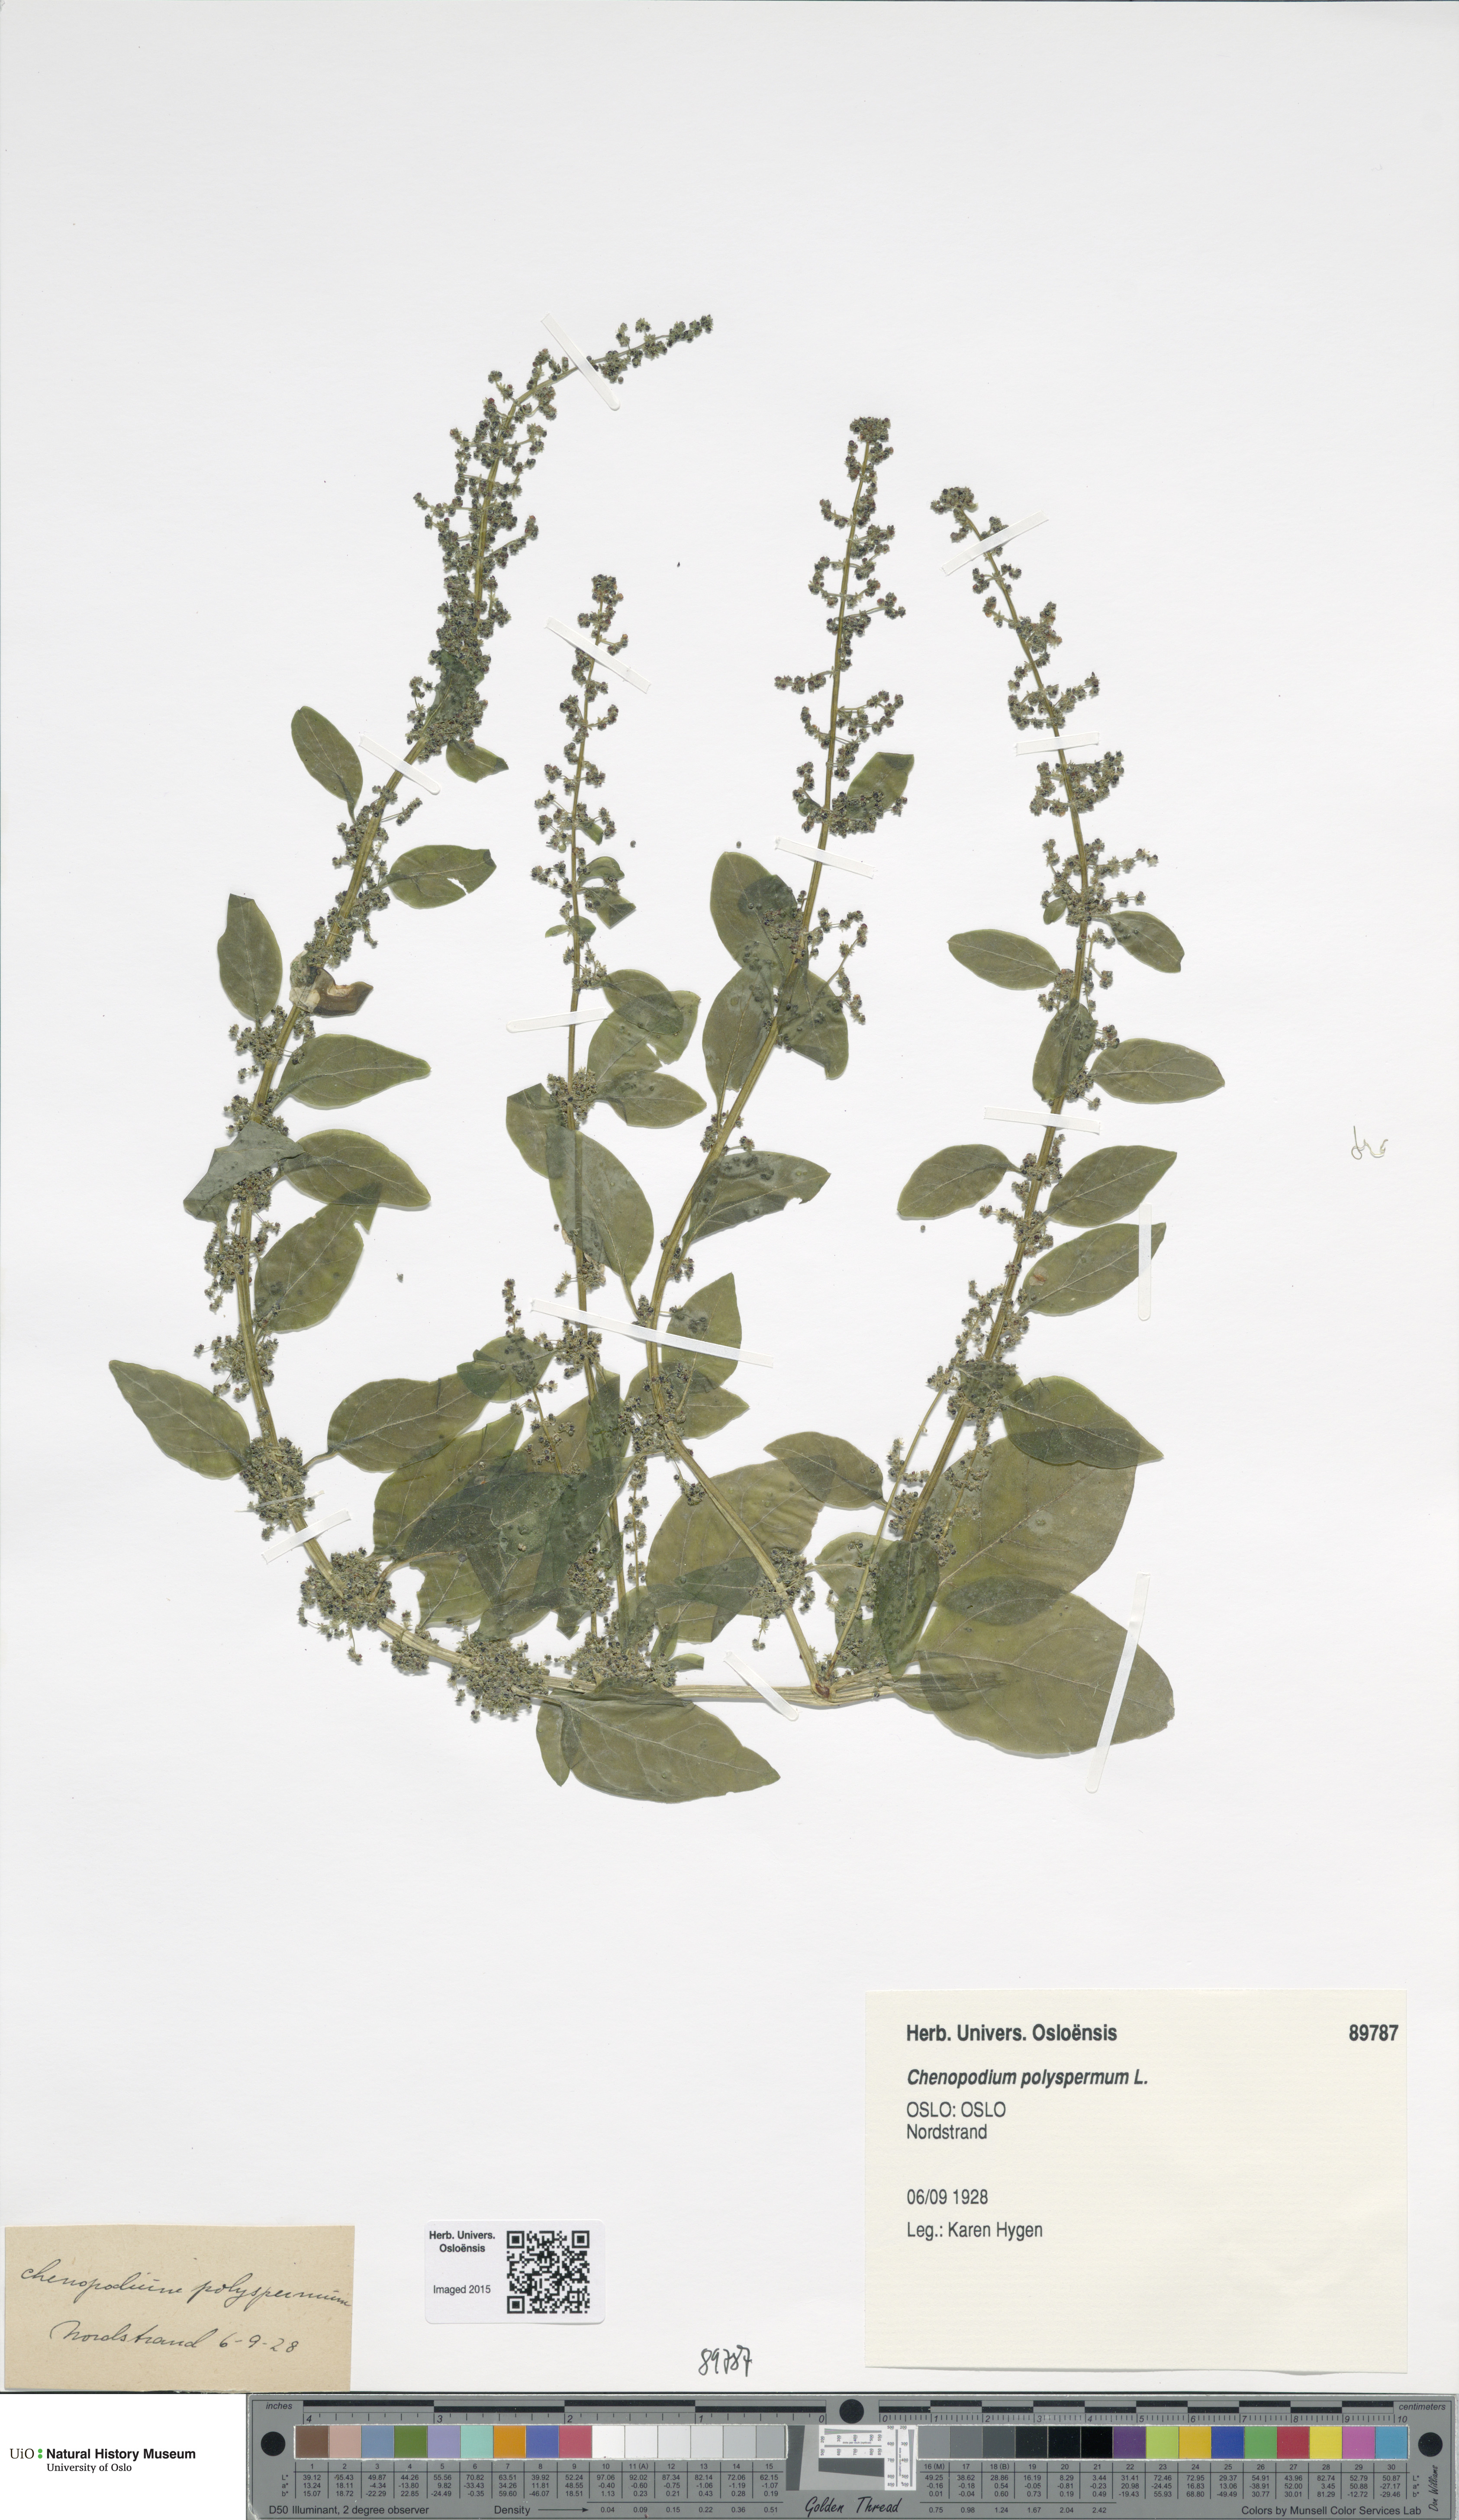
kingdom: Plantae
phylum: Tracheophyta
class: Magnoliopsida
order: Caryophyllales
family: Amaranthaceae
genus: Lipandra
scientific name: Lipandra polysperma
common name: Many-seed goosefoot
